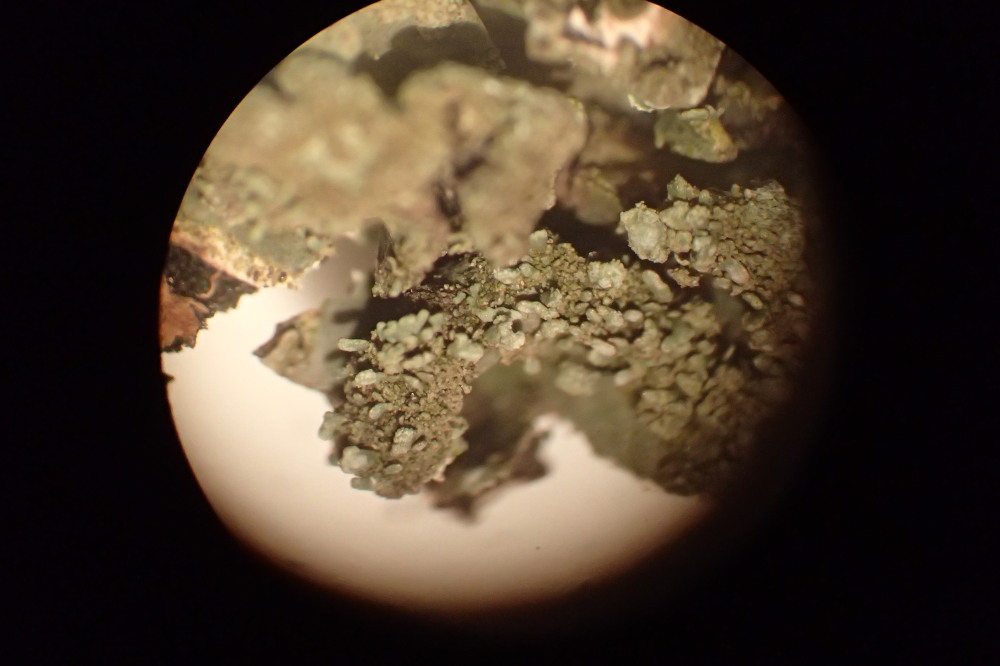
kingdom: Fungi
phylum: Ascomycota
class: Lecanoromycetes
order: Lecanorales
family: Parmeliaceae
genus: Parmelia
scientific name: Parmelia sulcata
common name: rynket skållav
